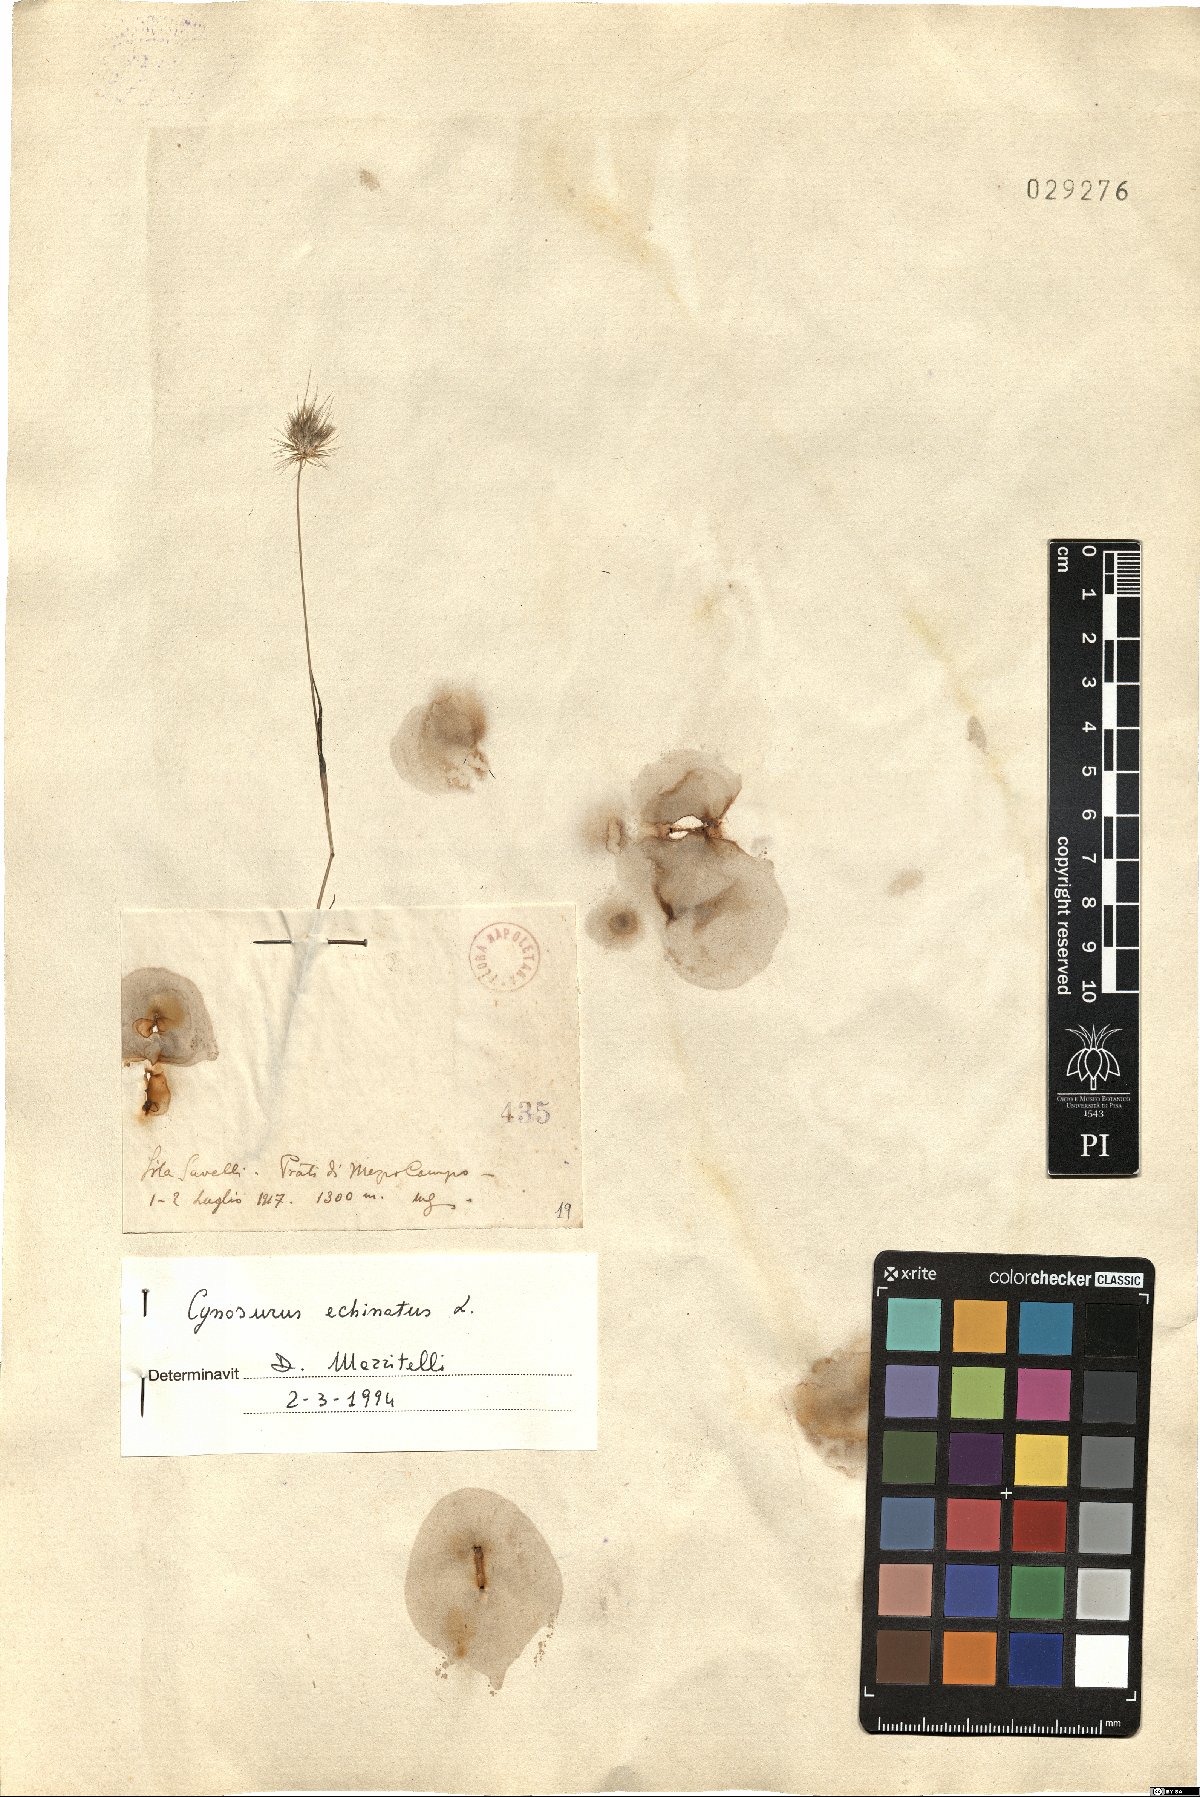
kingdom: Plantae
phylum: Tracheophyta
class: Liliopsida
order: Poales
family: Poaceae
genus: Cynosurus
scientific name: Cynosurus echinatus
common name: Rough dog's-tail
